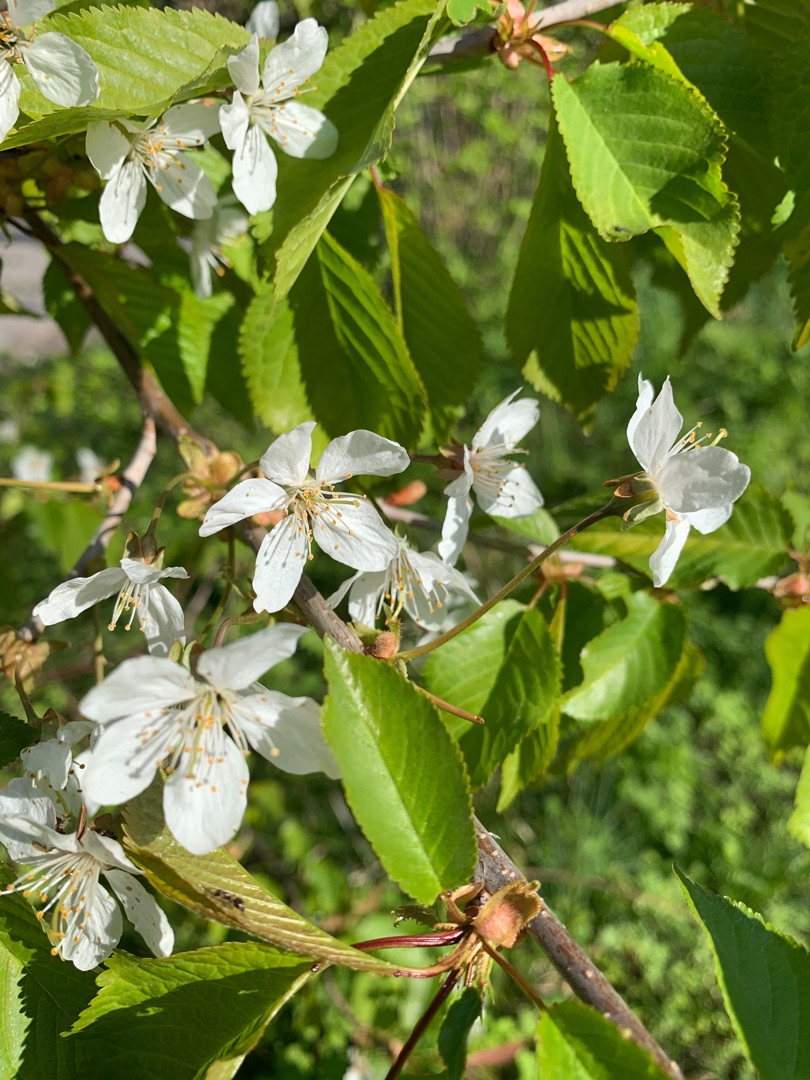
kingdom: Plantae
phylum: Tracheophyta
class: Magnoliopsida
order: Rosales
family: Rosaceae
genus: Prunus
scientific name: Prunus avium
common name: Fugle-kirsebær
